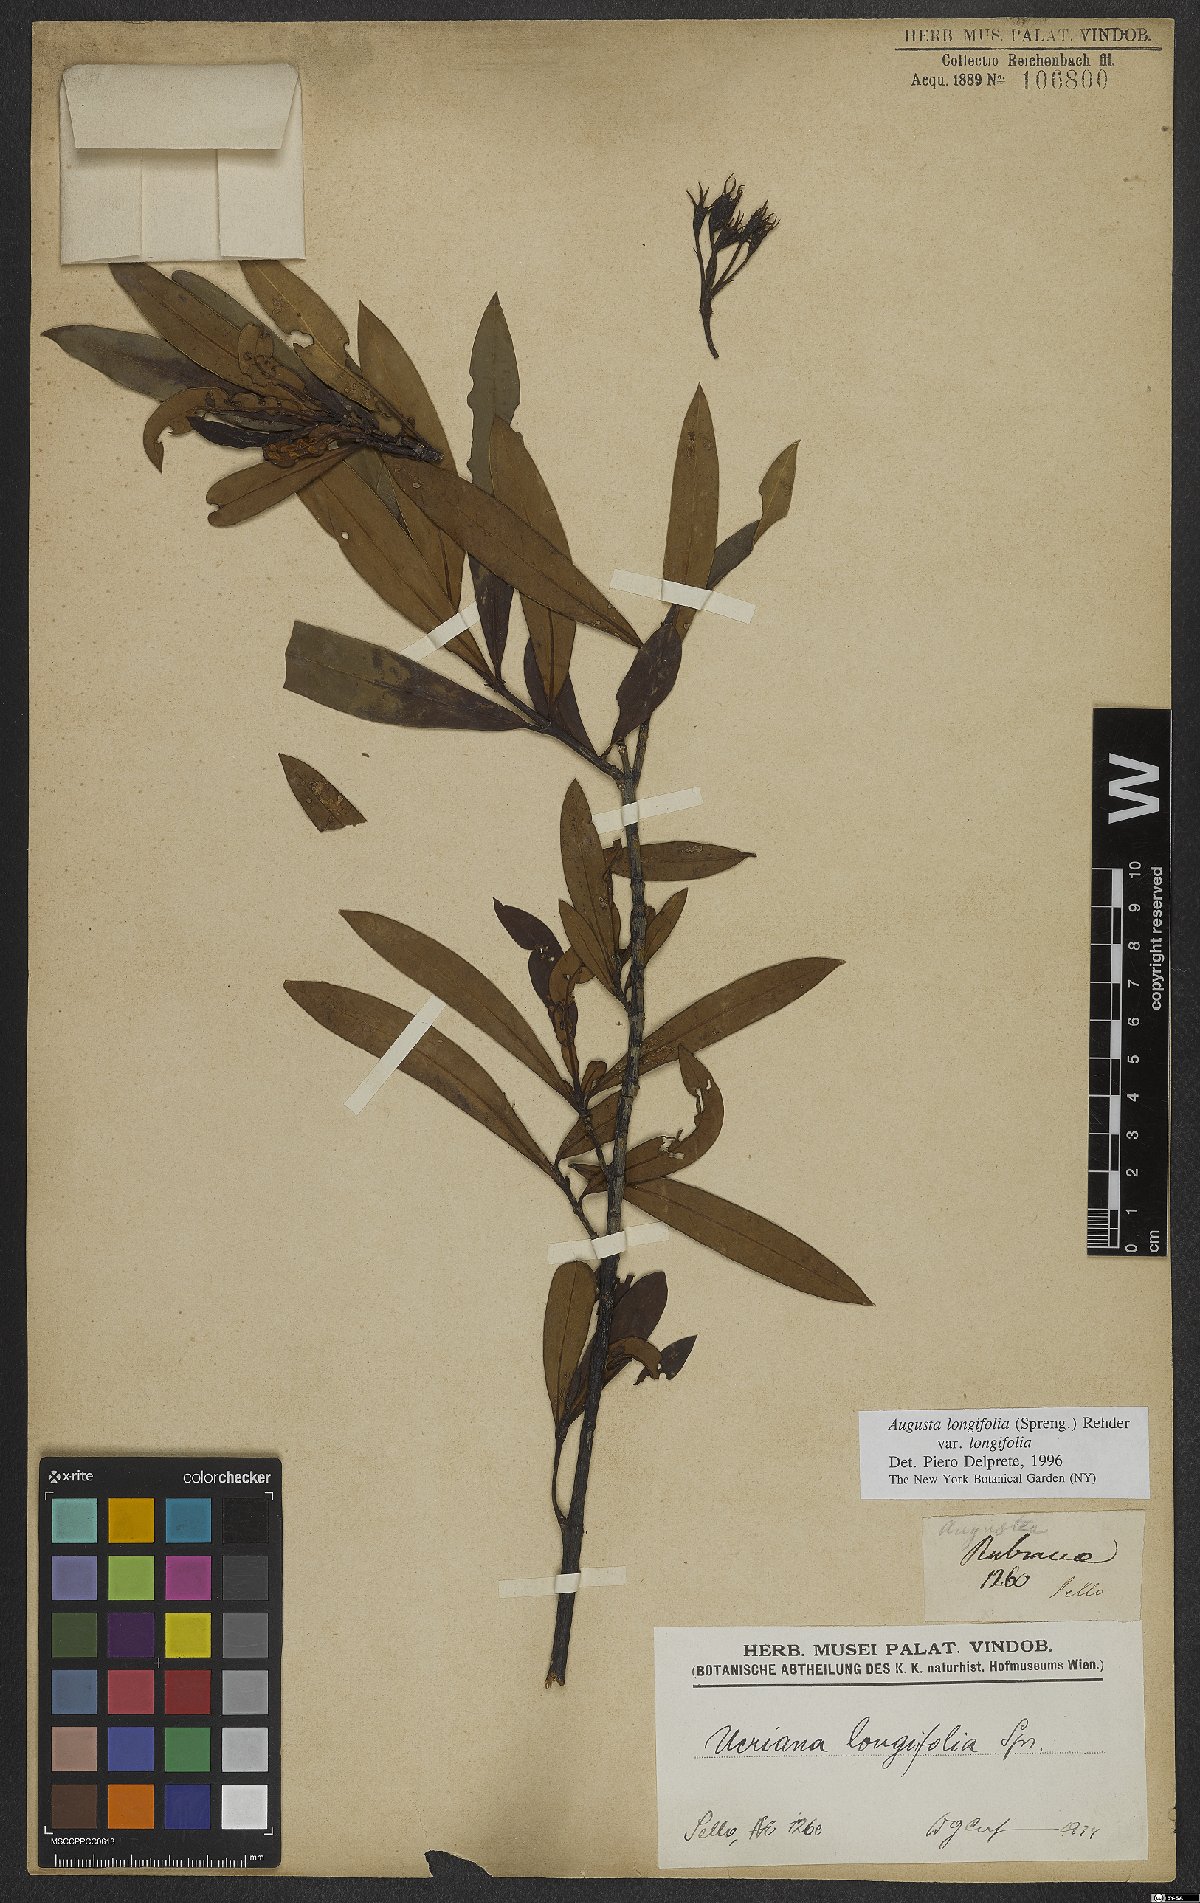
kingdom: Plantae
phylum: Tracheophyta
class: Magnoliopsida
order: Gentianales
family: Rubiaceae
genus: Augusta
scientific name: Augusta longifolia
